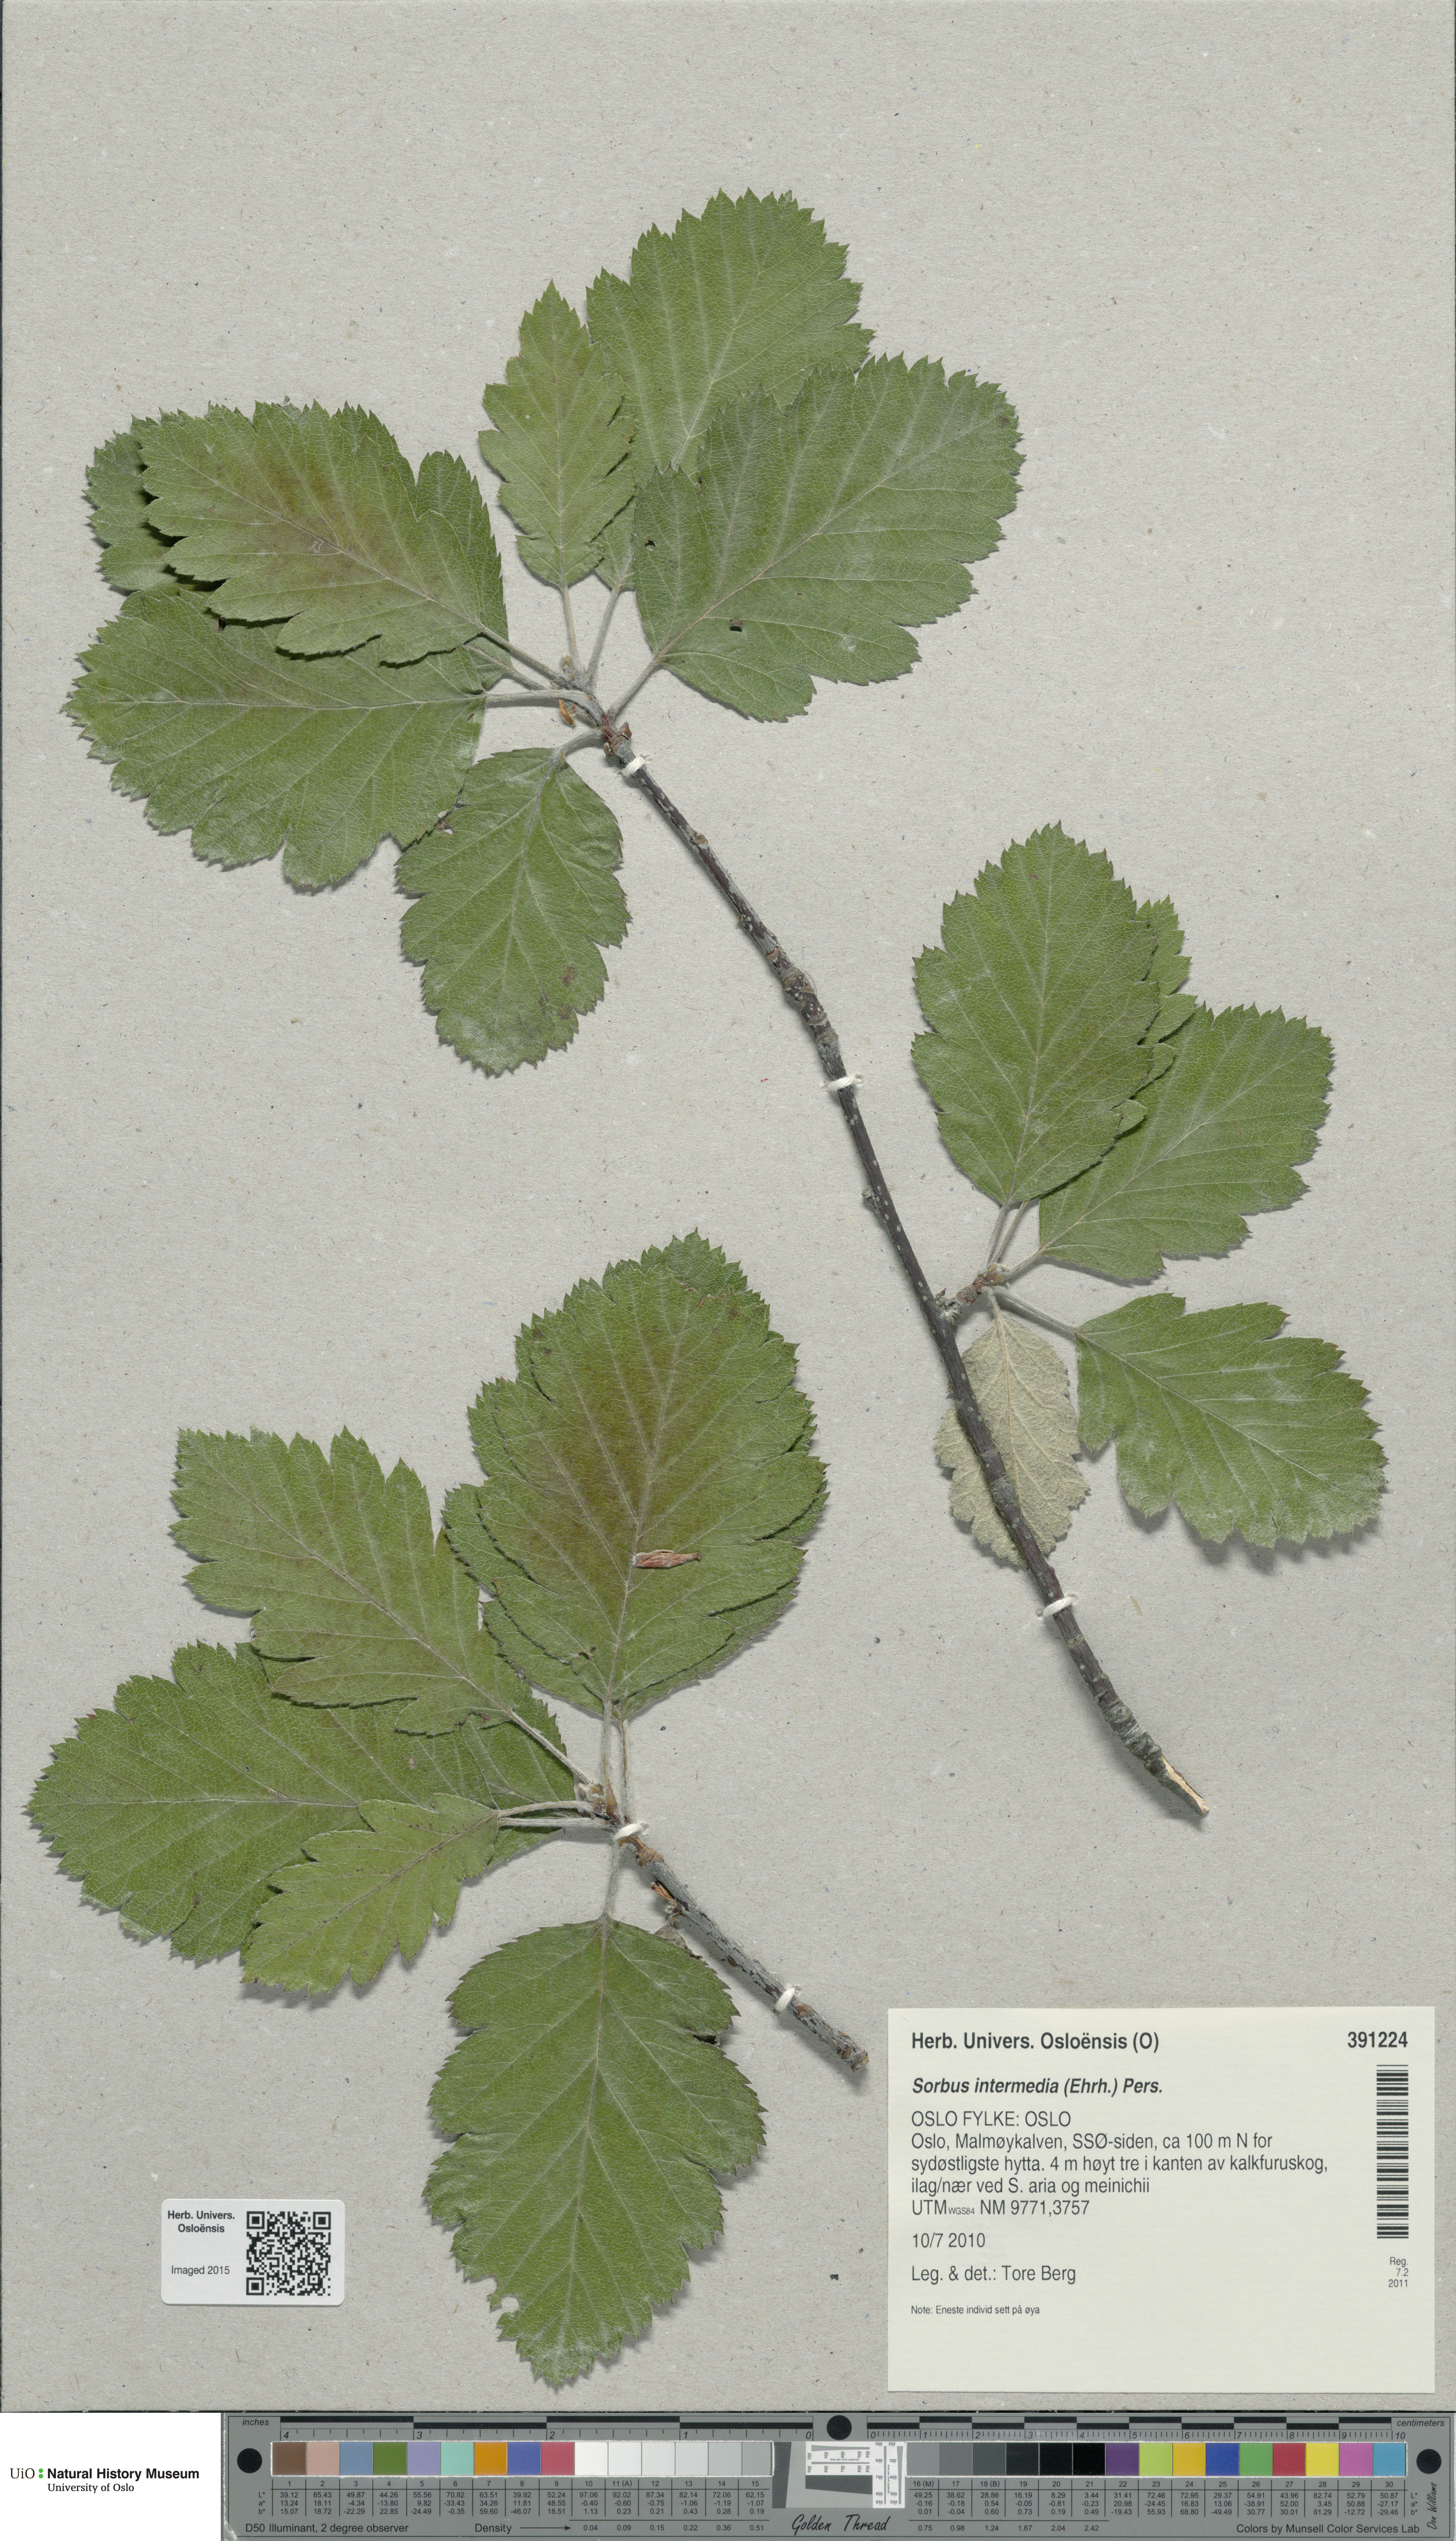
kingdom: Plantae
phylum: Tracheophyta
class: Magnoliopsida
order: Rosales
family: Rosaceae
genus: Scandosorbus
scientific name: Scandosorbus intermedia
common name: Swedish whitebeam
